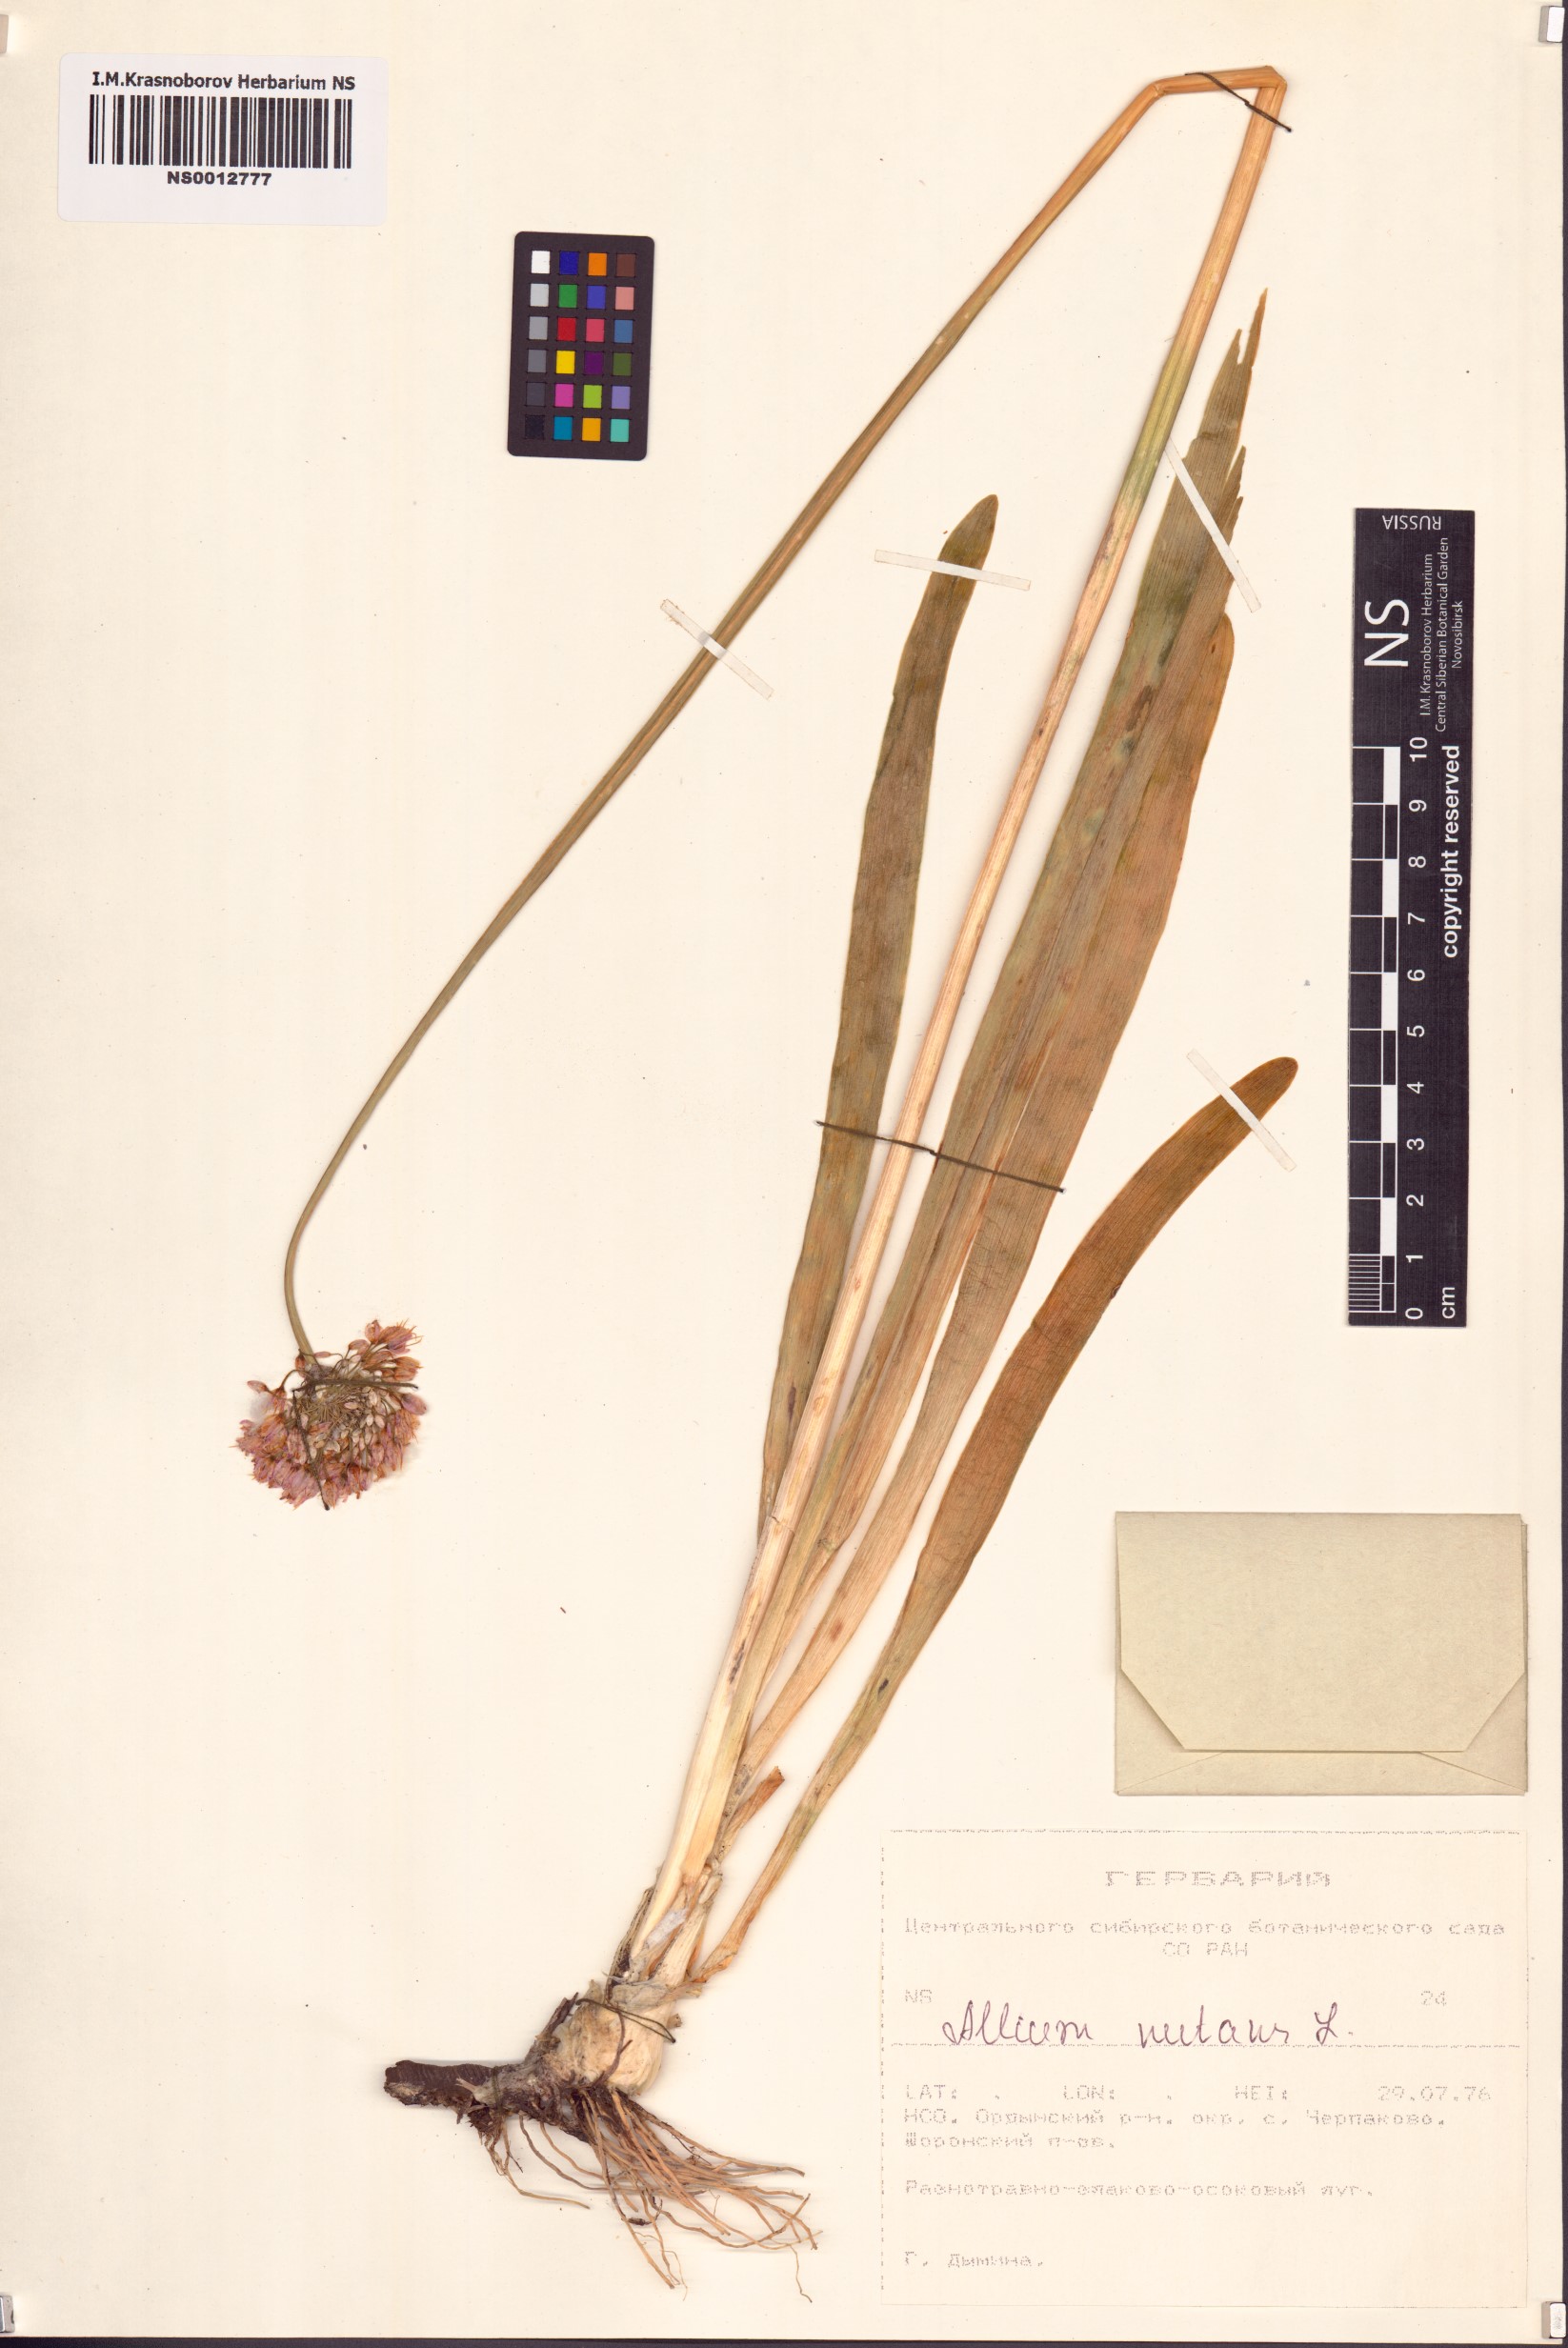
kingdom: Plantae
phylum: Tracheophyta
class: Liliopsida
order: Asparagales
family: Amaryllidaceae
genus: Allium
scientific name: Allium nutans
